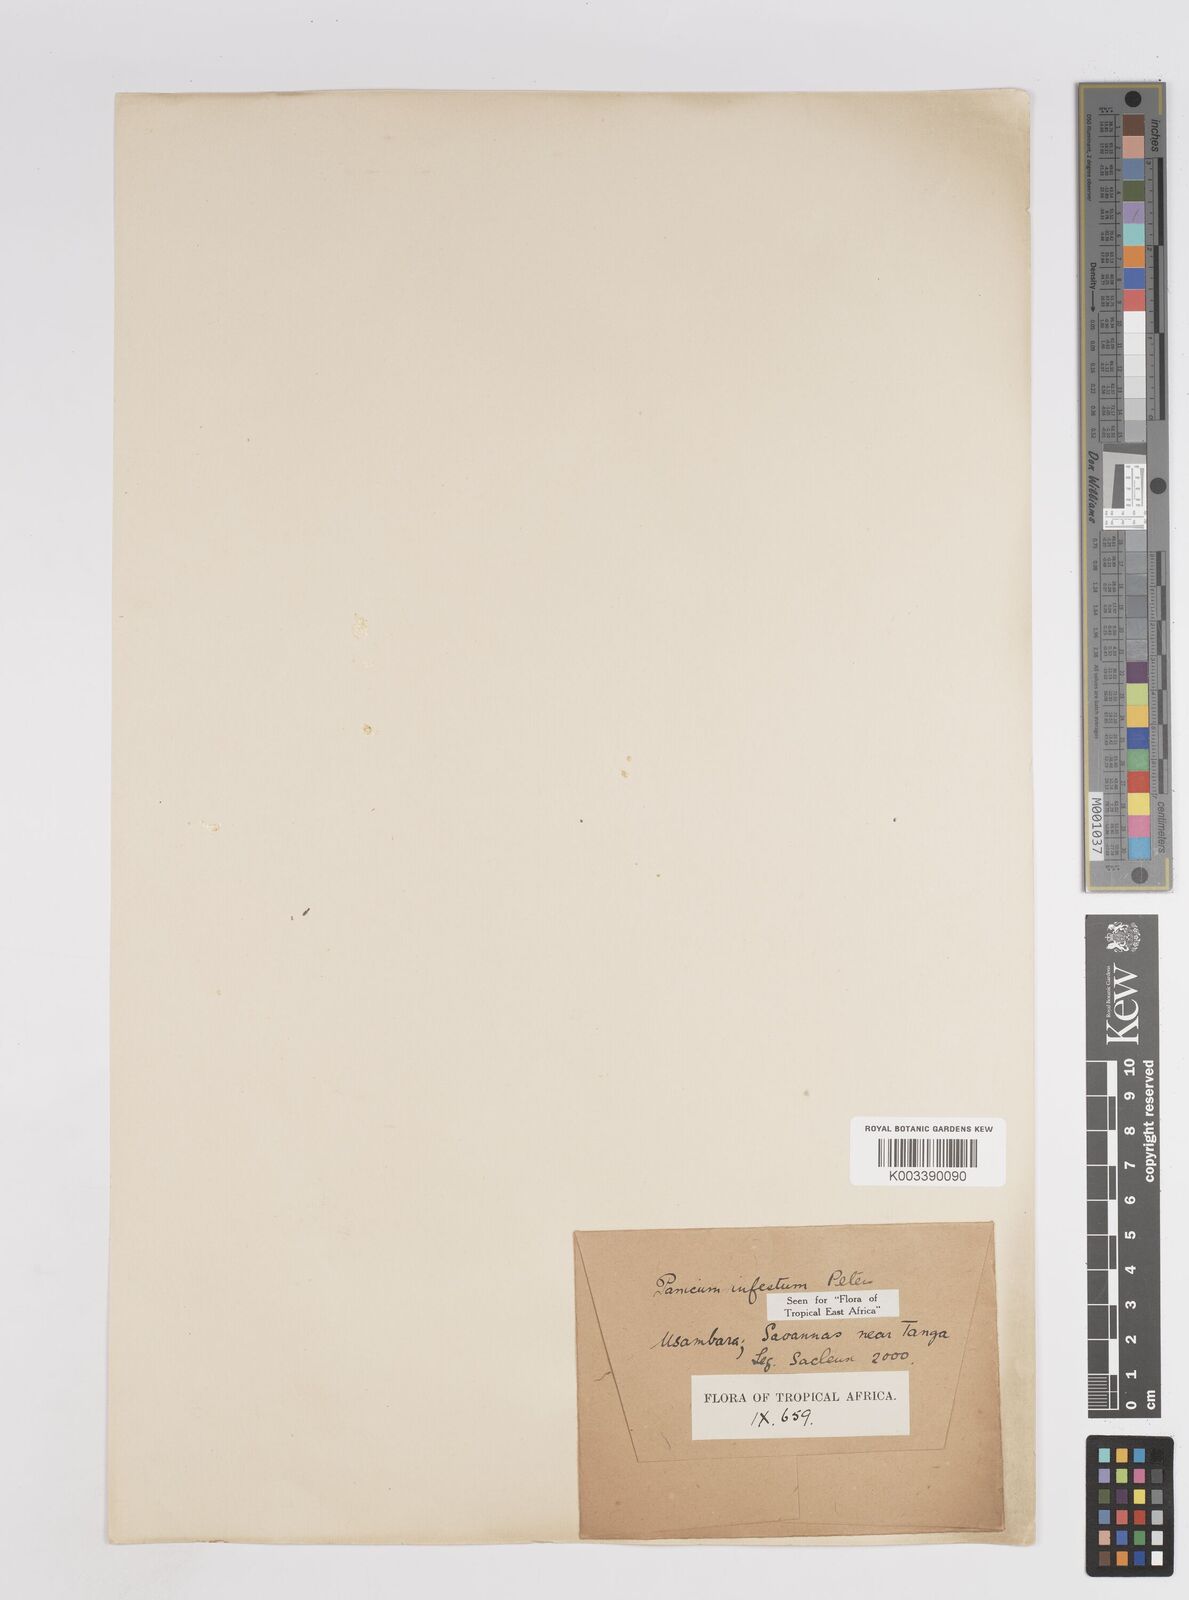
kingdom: Plantae
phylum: Tracheophyta
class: Liliopsida
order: Poales
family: Poaceae
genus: Megathyrsus
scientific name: Megathyrsus infestus
